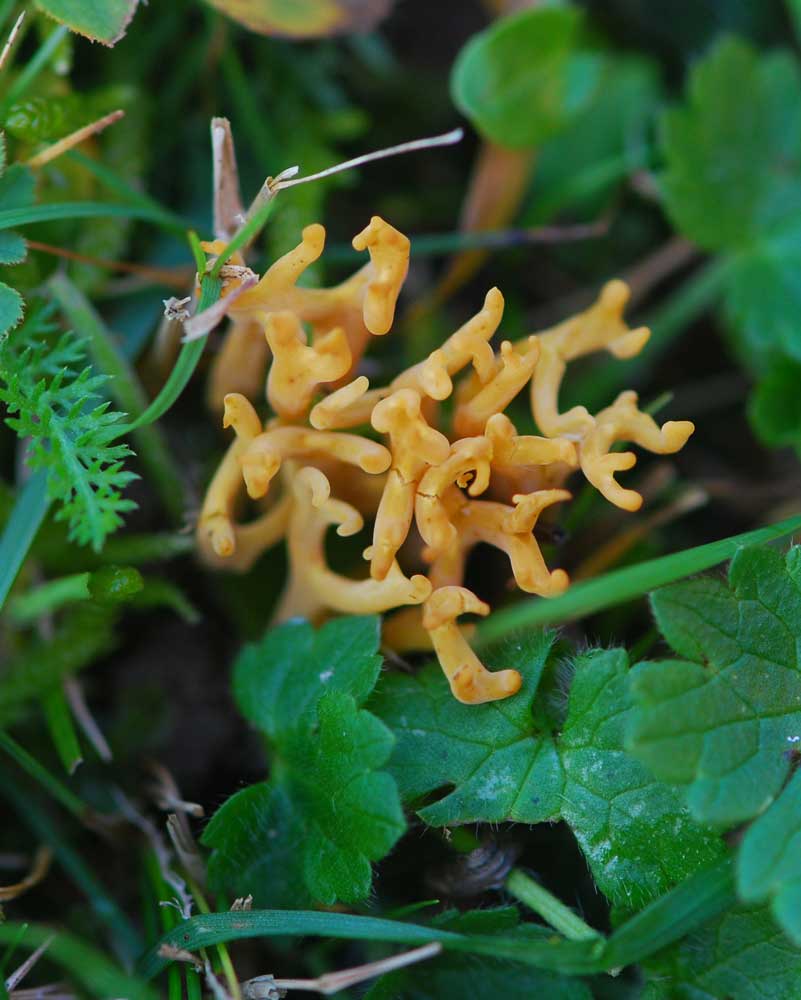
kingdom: Fungi
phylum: Basidiomycota
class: Agaricomycetes
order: Agaricales
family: Clavariaceae
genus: Clavulinopsis
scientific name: Clavulinopsis corniculata
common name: eng-køllesvamp
